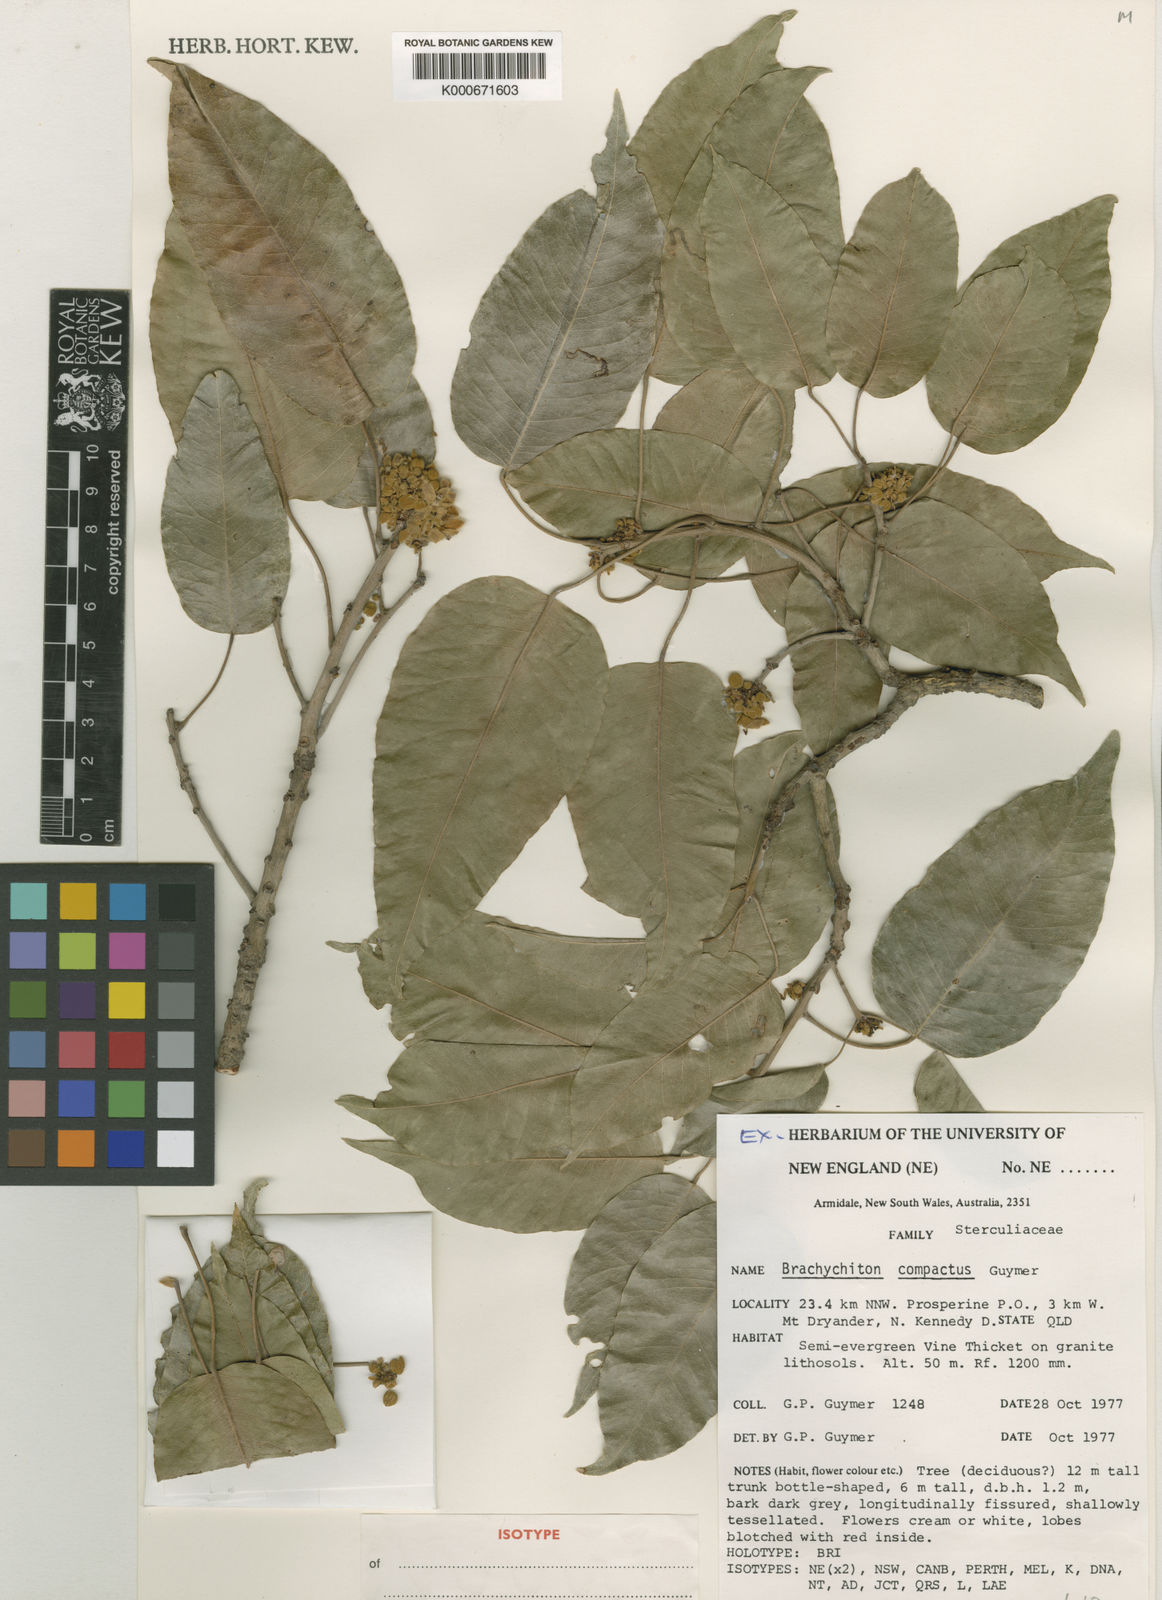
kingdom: Plantae
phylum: Tracheophyta
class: Magnoliopsida
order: Malvales
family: Malvaceae
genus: Brachychiton
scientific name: Brachychiton compactus
